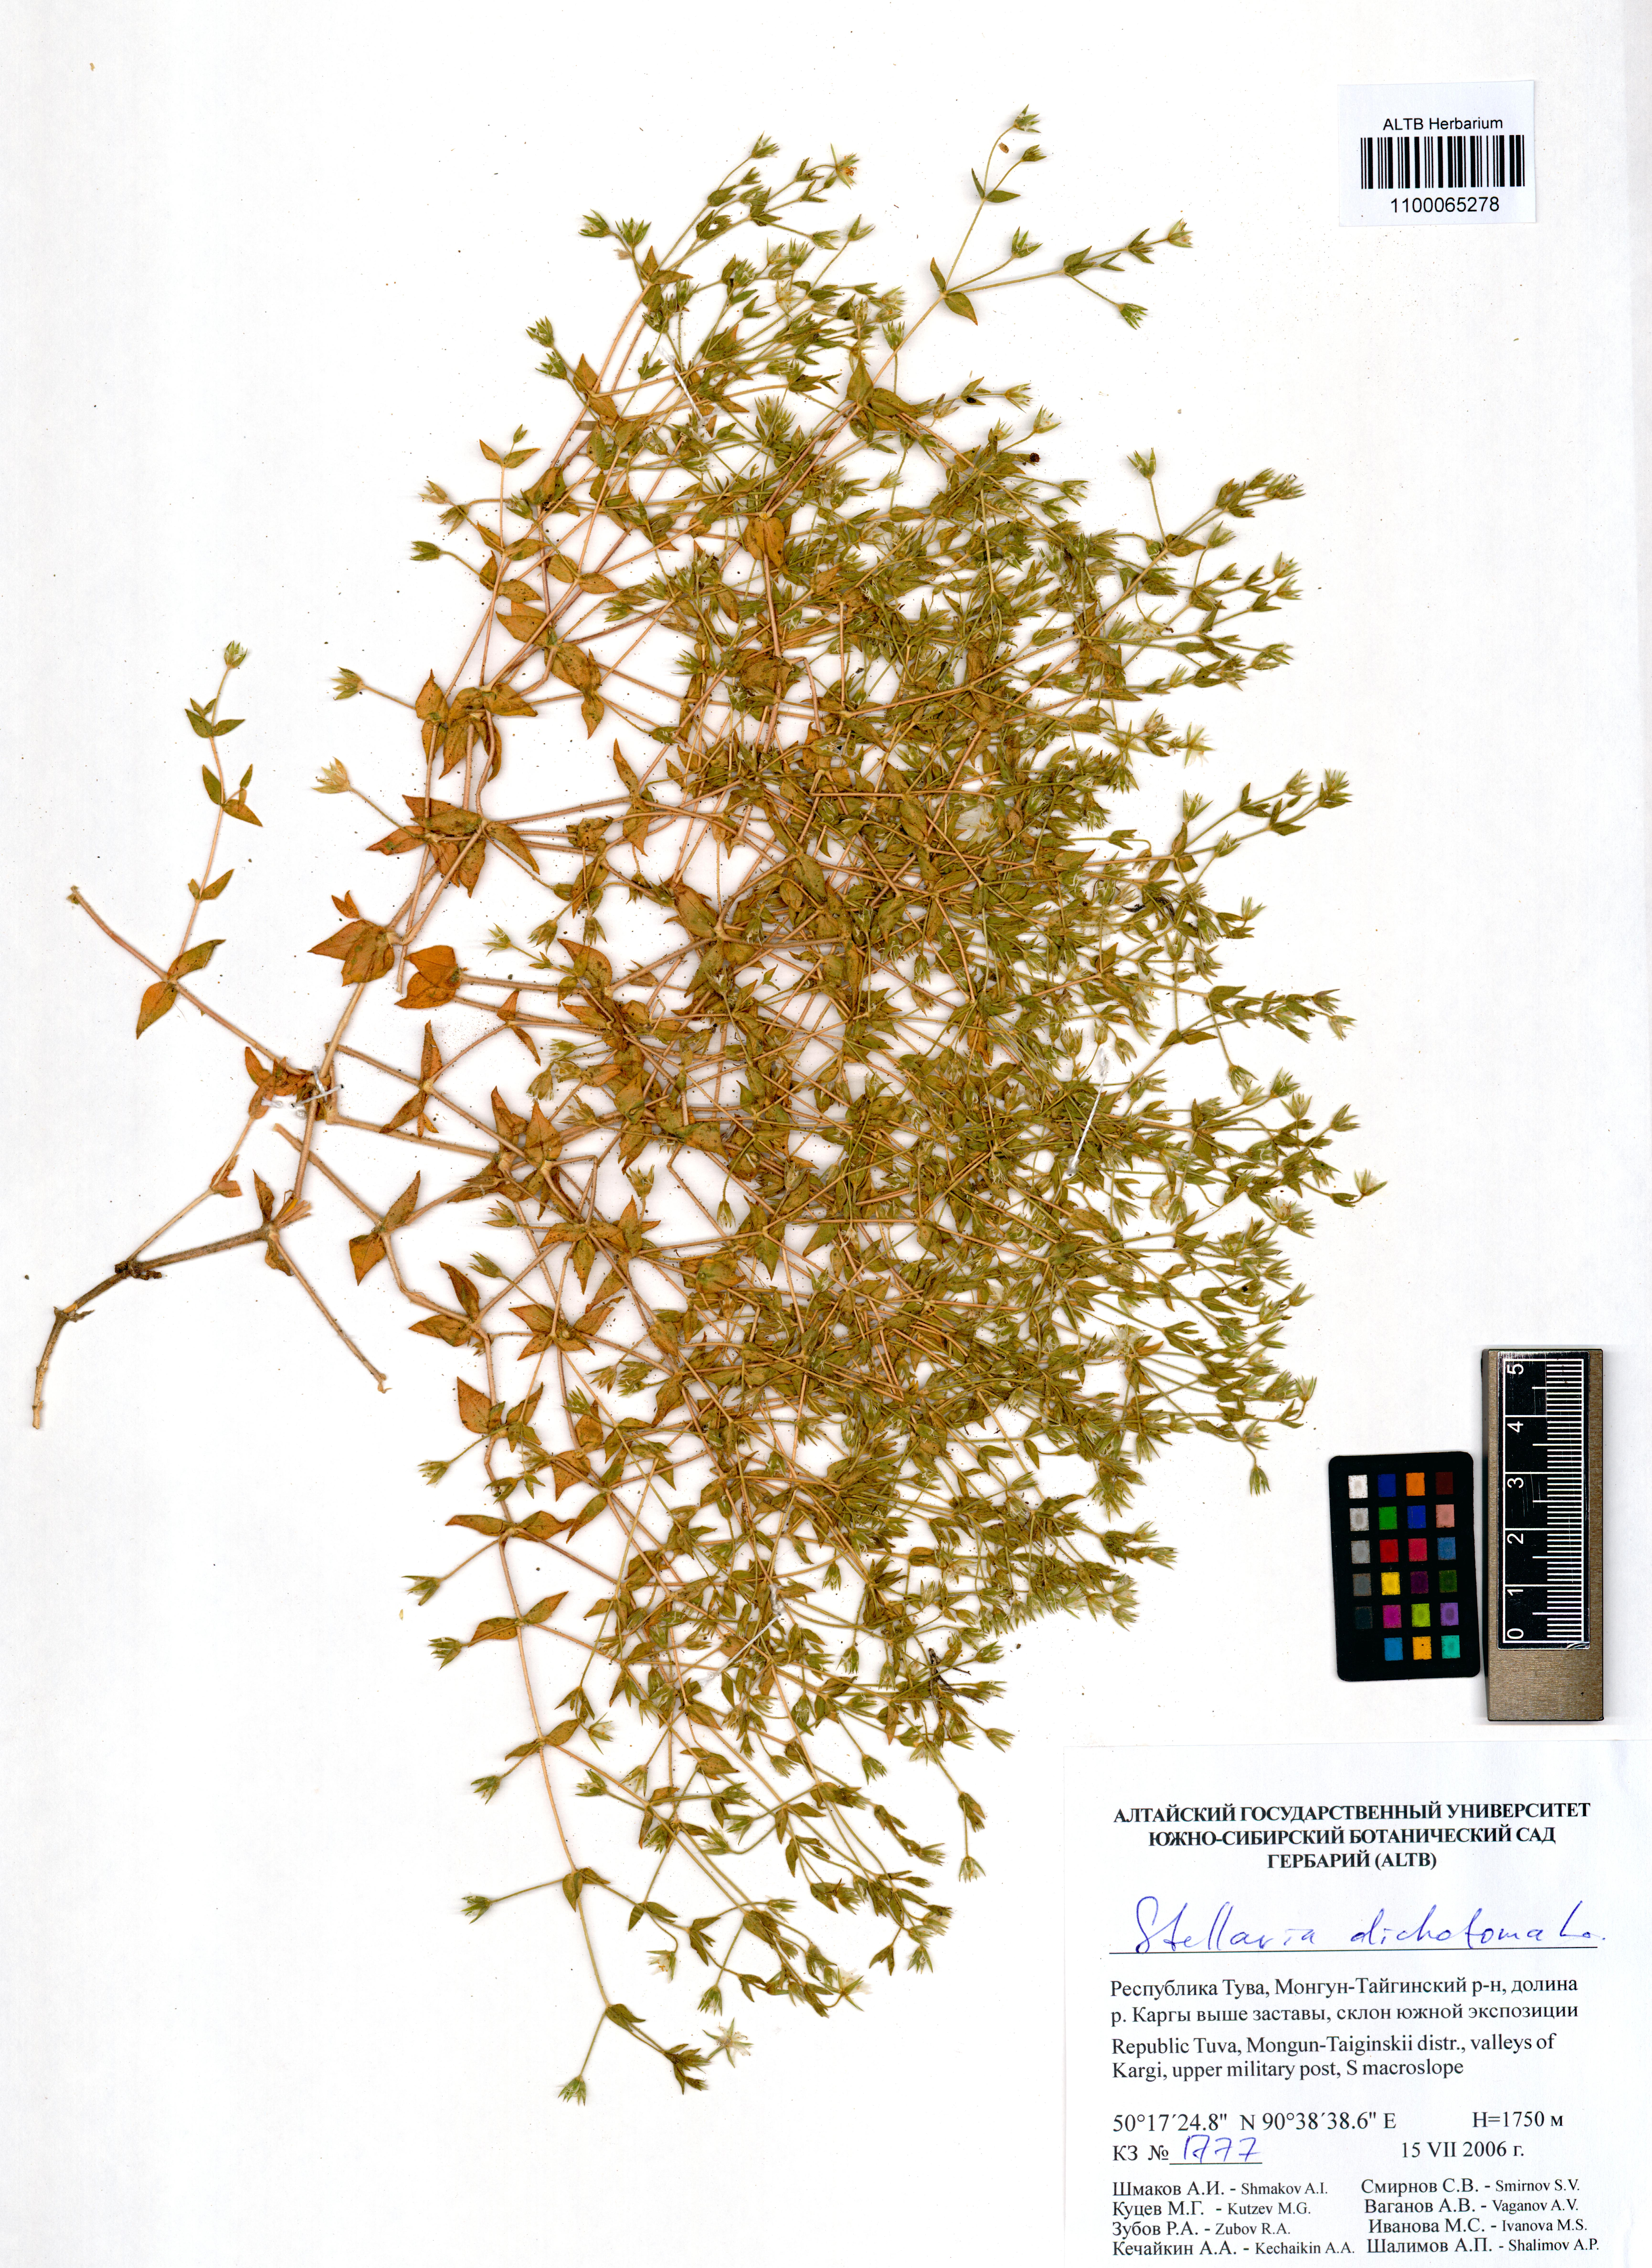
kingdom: Plantae
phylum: Tracheophyta
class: Magnoliopsida
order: Caryophyllales
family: Caryophyllaceae
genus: Mesostemma
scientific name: Mesostemma dichotomum
